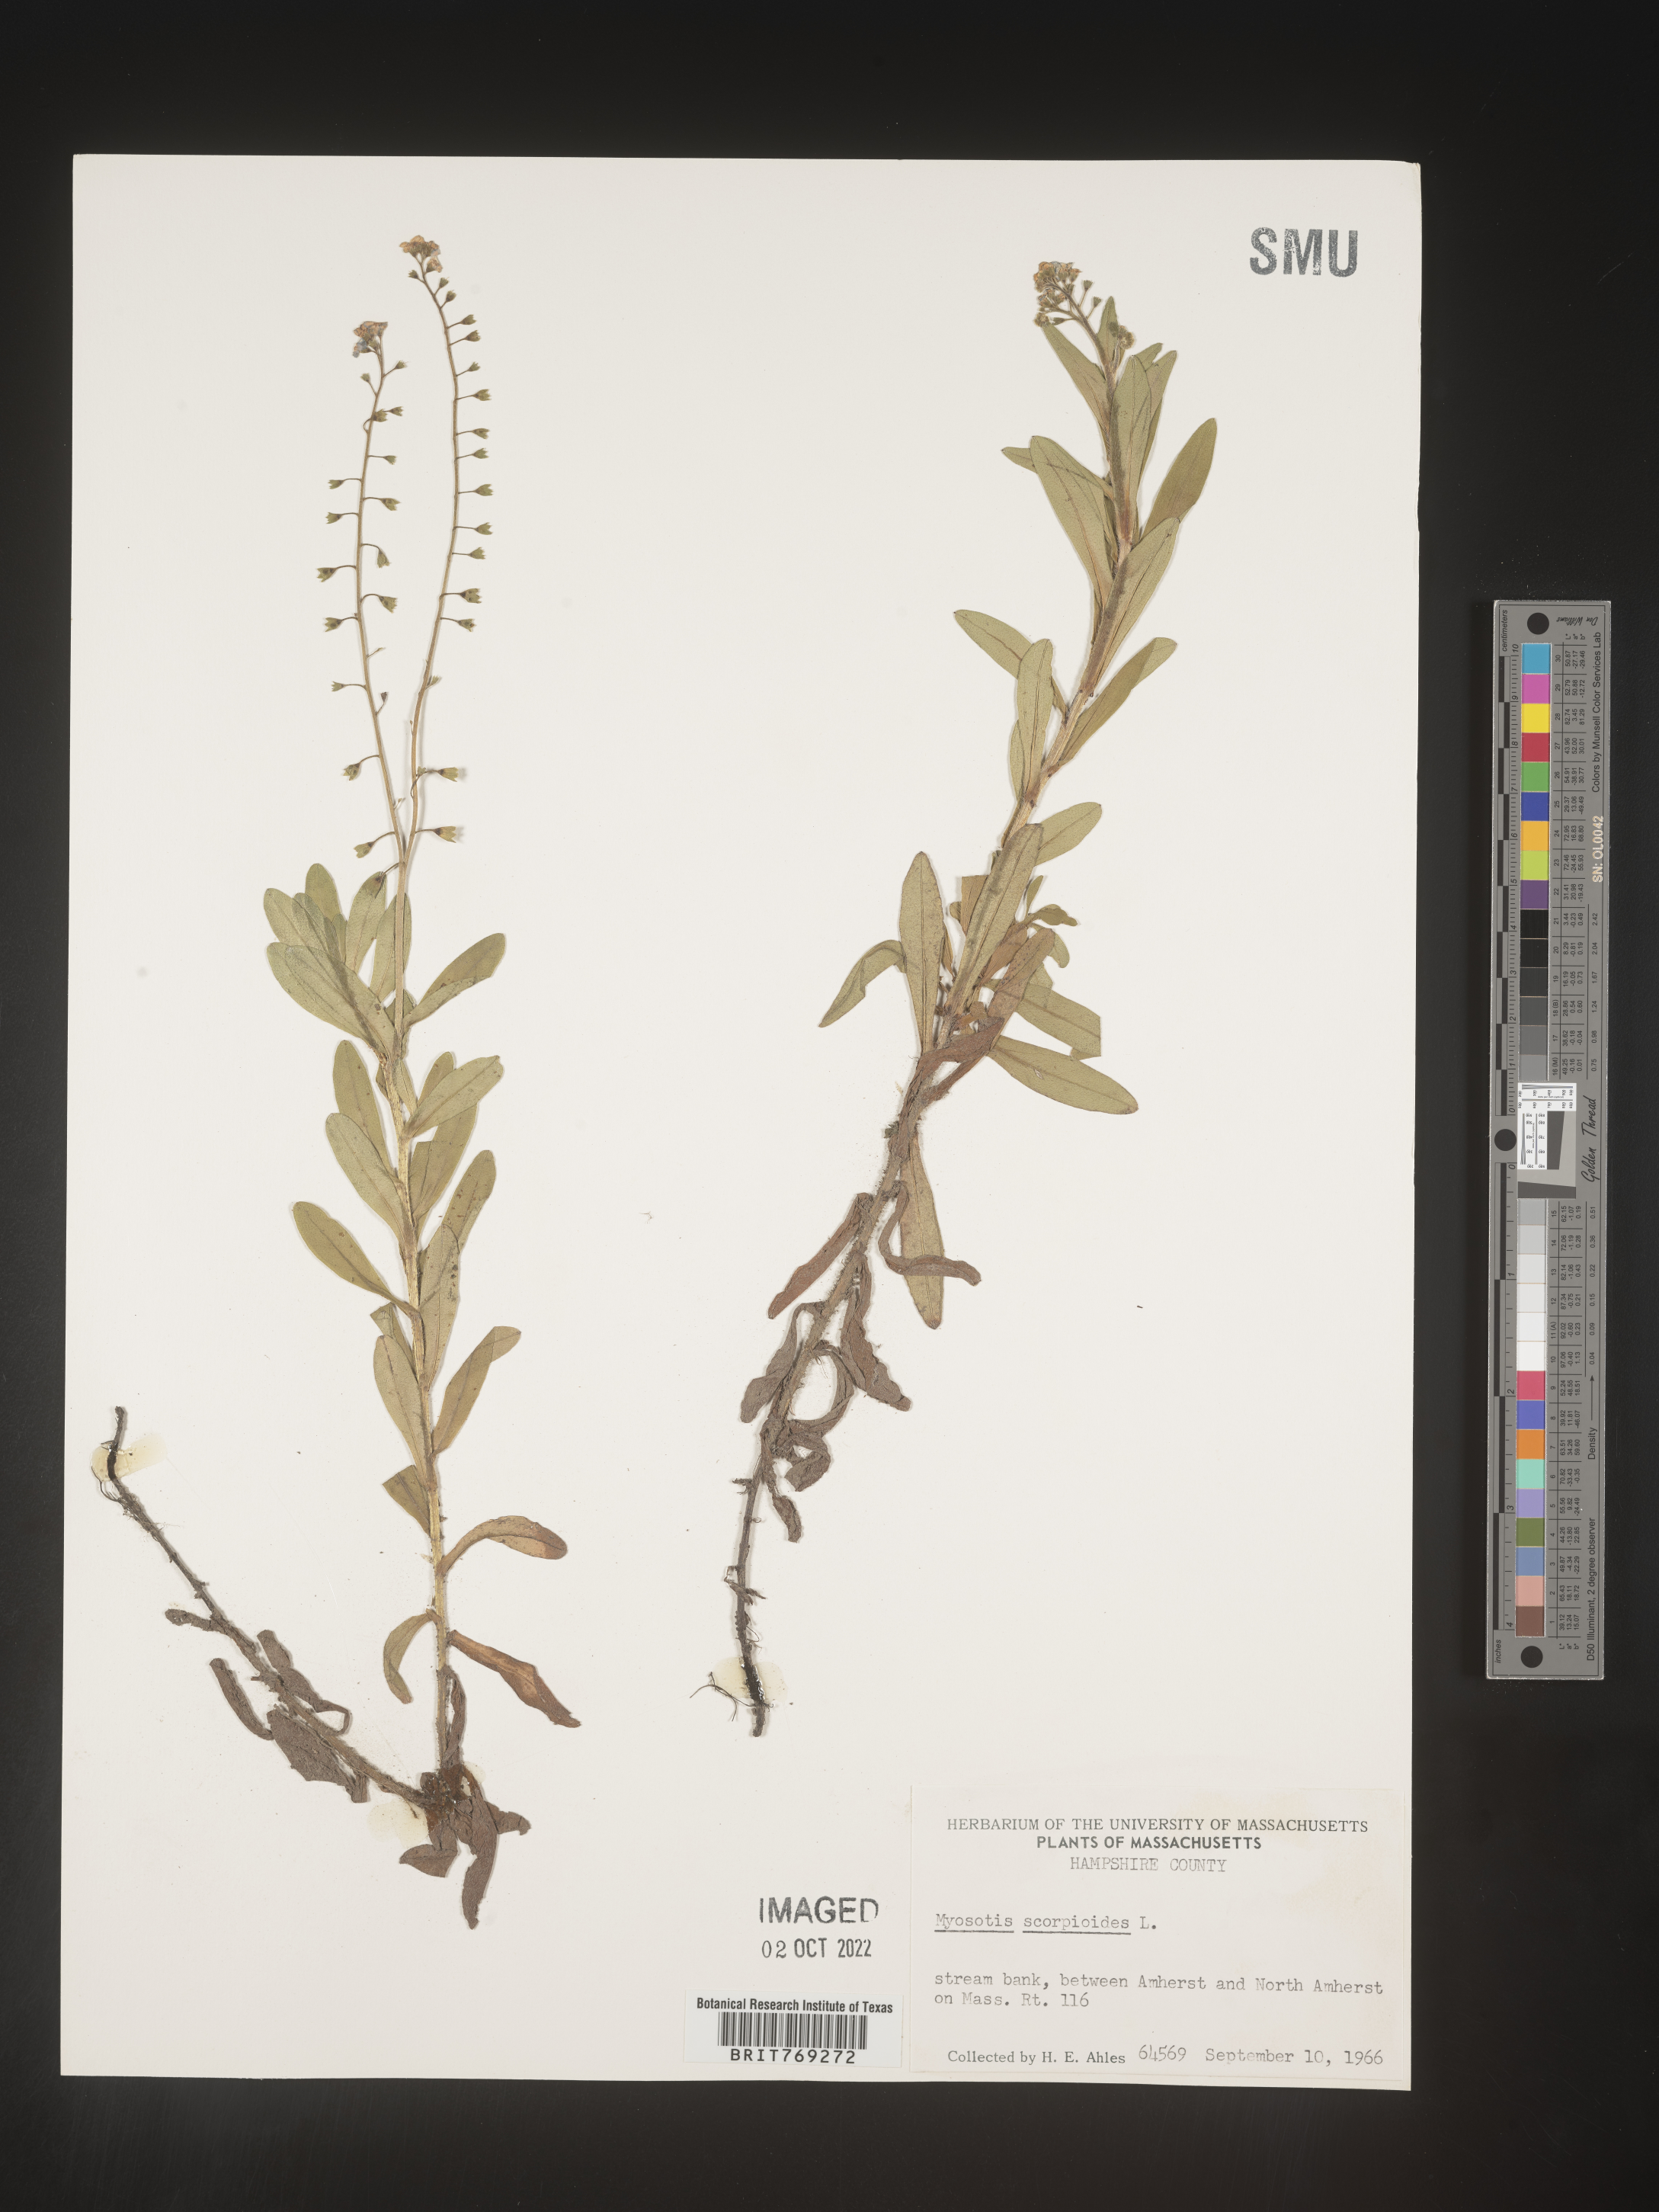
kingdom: Plantae
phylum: Tracheophyta
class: Magnoliopsida
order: Boraginales
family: Boraginaceae
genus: Myosotis
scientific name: Myosotis scorpioides
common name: Water forget-me-not
